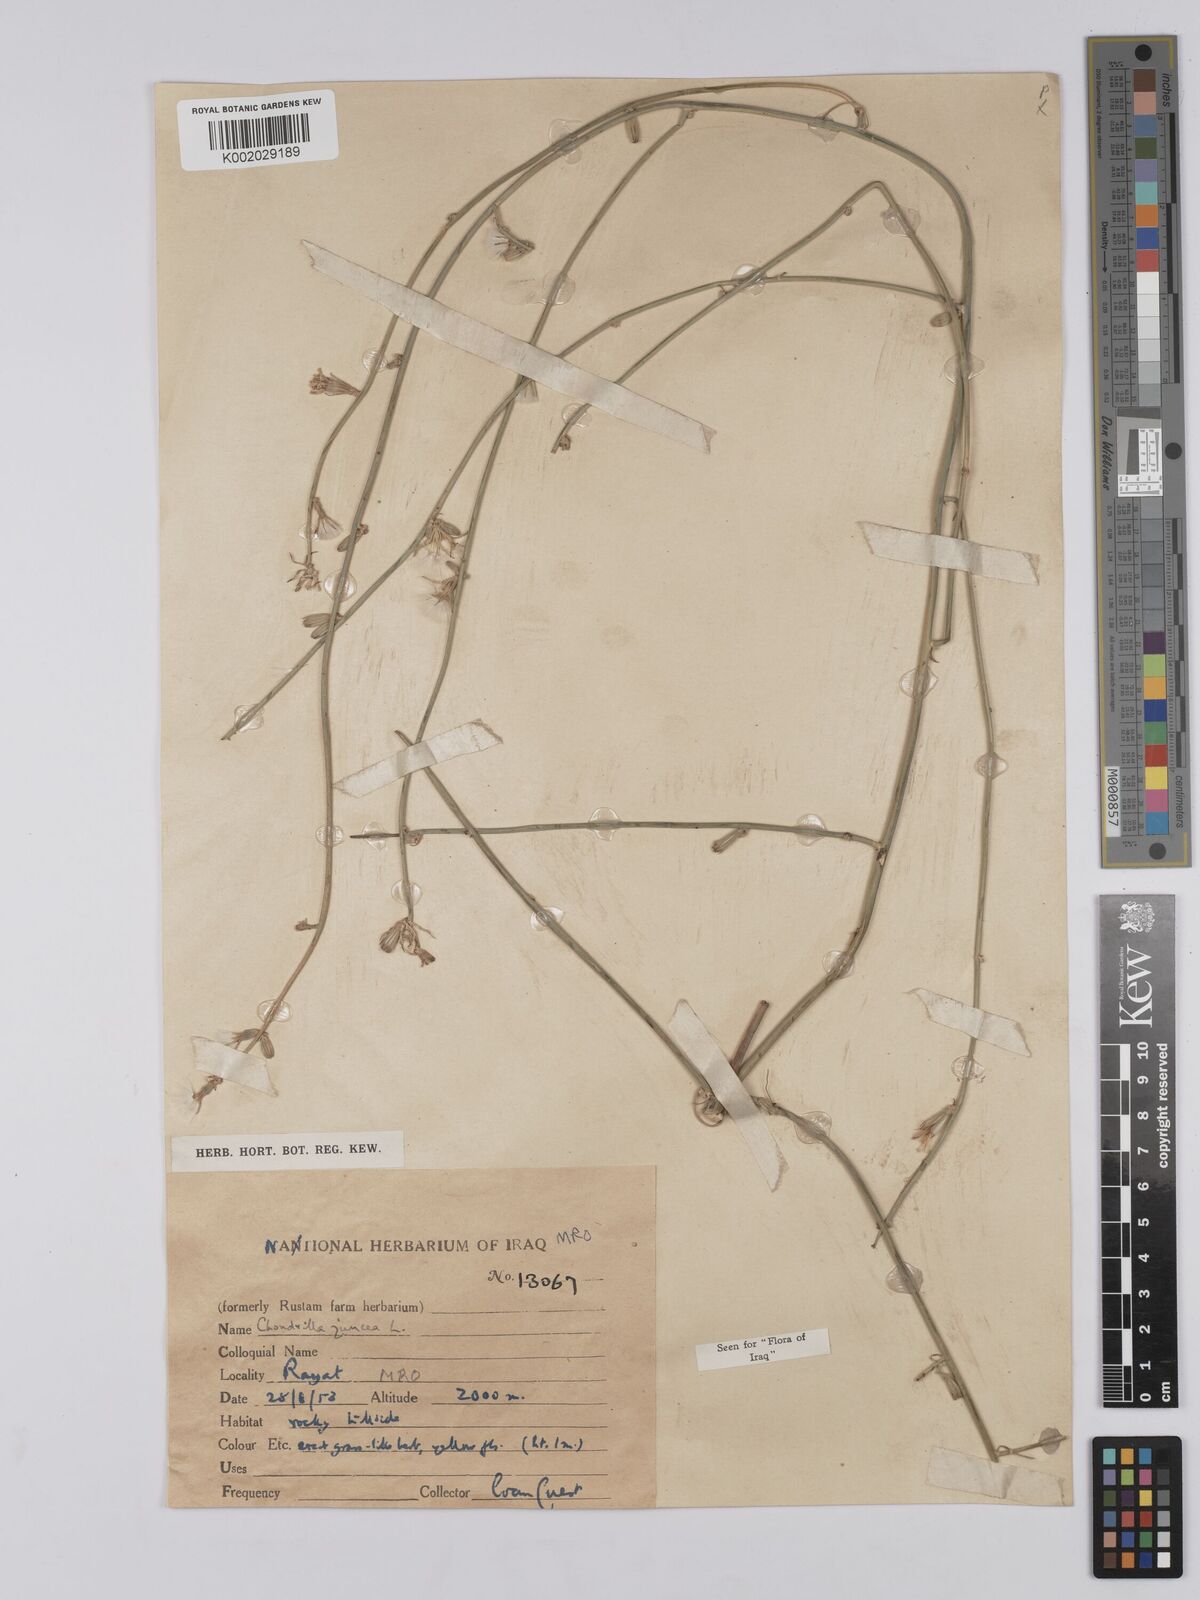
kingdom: Plantae
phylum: Tracheophyta
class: Magnoliopsida
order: Asterales
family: Asteraceae
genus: Chondrilla
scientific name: Chondrilla juncea
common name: Skeleton weed
